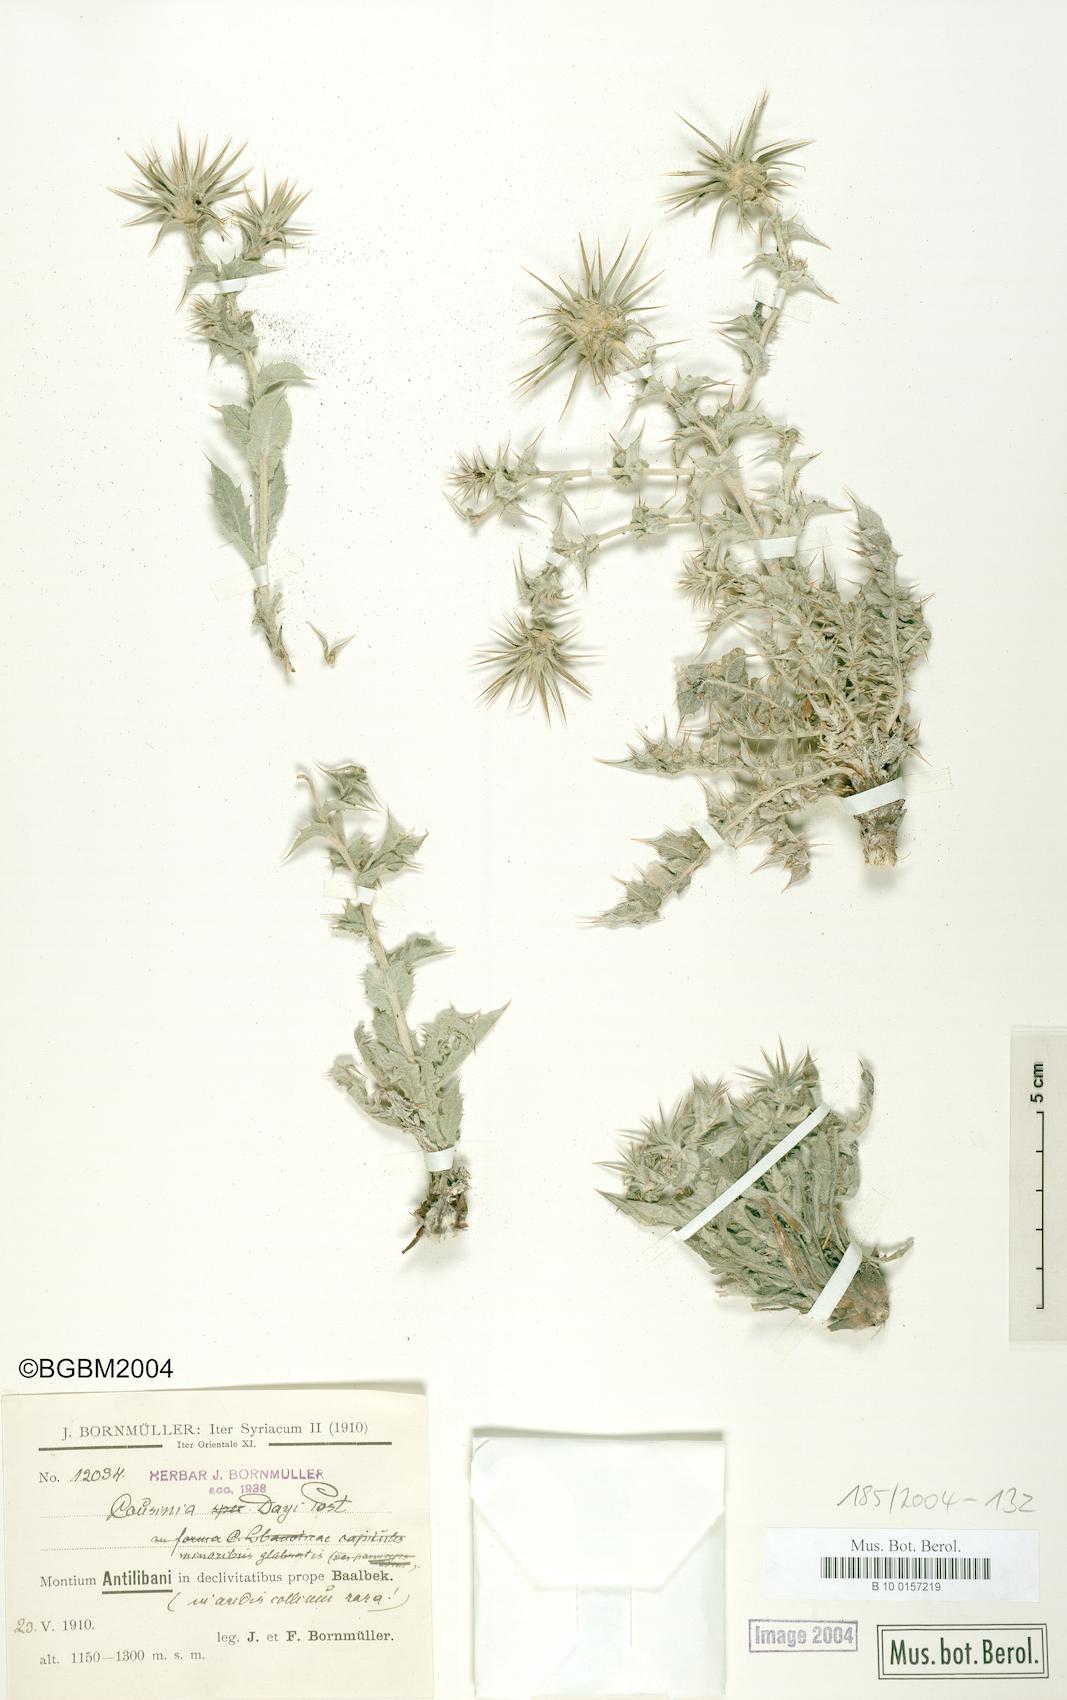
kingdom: Plantae
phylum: Tracheophyta
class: Magnoliopsida
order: Asterales
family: Asteraceae
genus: Cousinia
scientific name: Cousinia libanotica
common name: Lebanon cousinia
